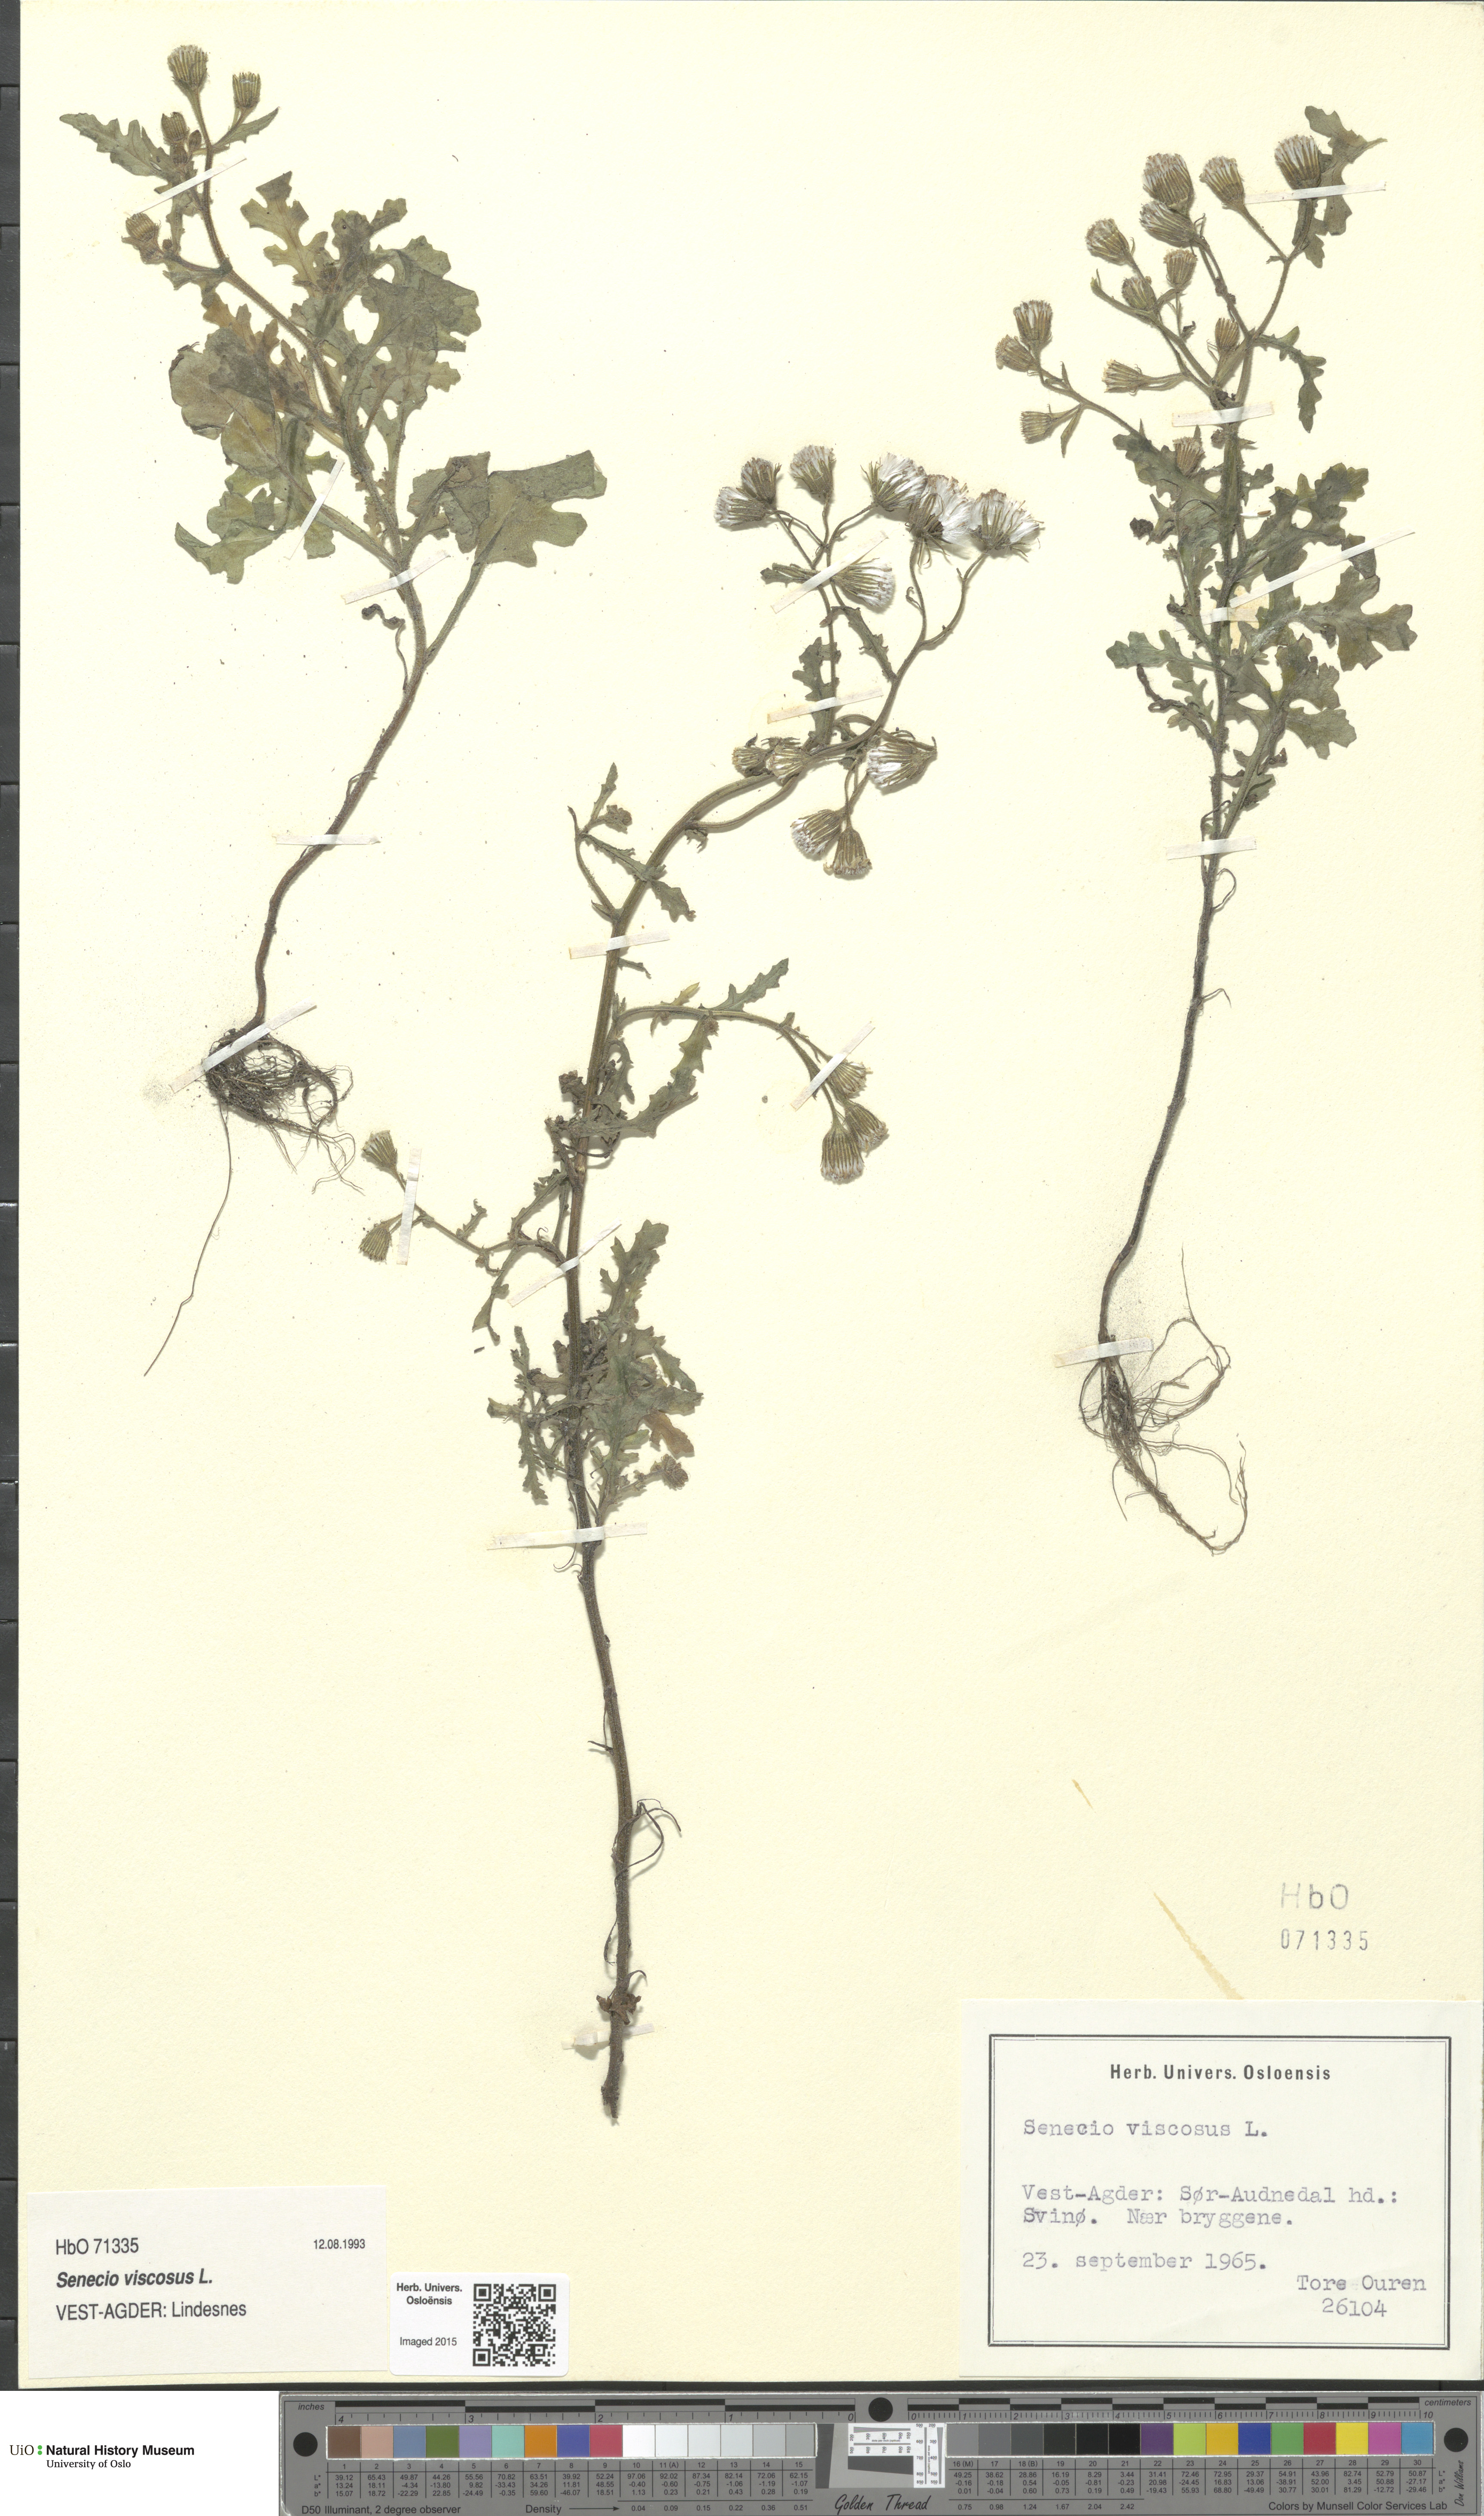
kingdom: Plantae
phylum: Tracheophyta
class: Magnoliopsida
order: Asterales
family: Asteraceae
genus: Senecio
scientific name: Senecio viscosus
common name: Sticky groundsel
